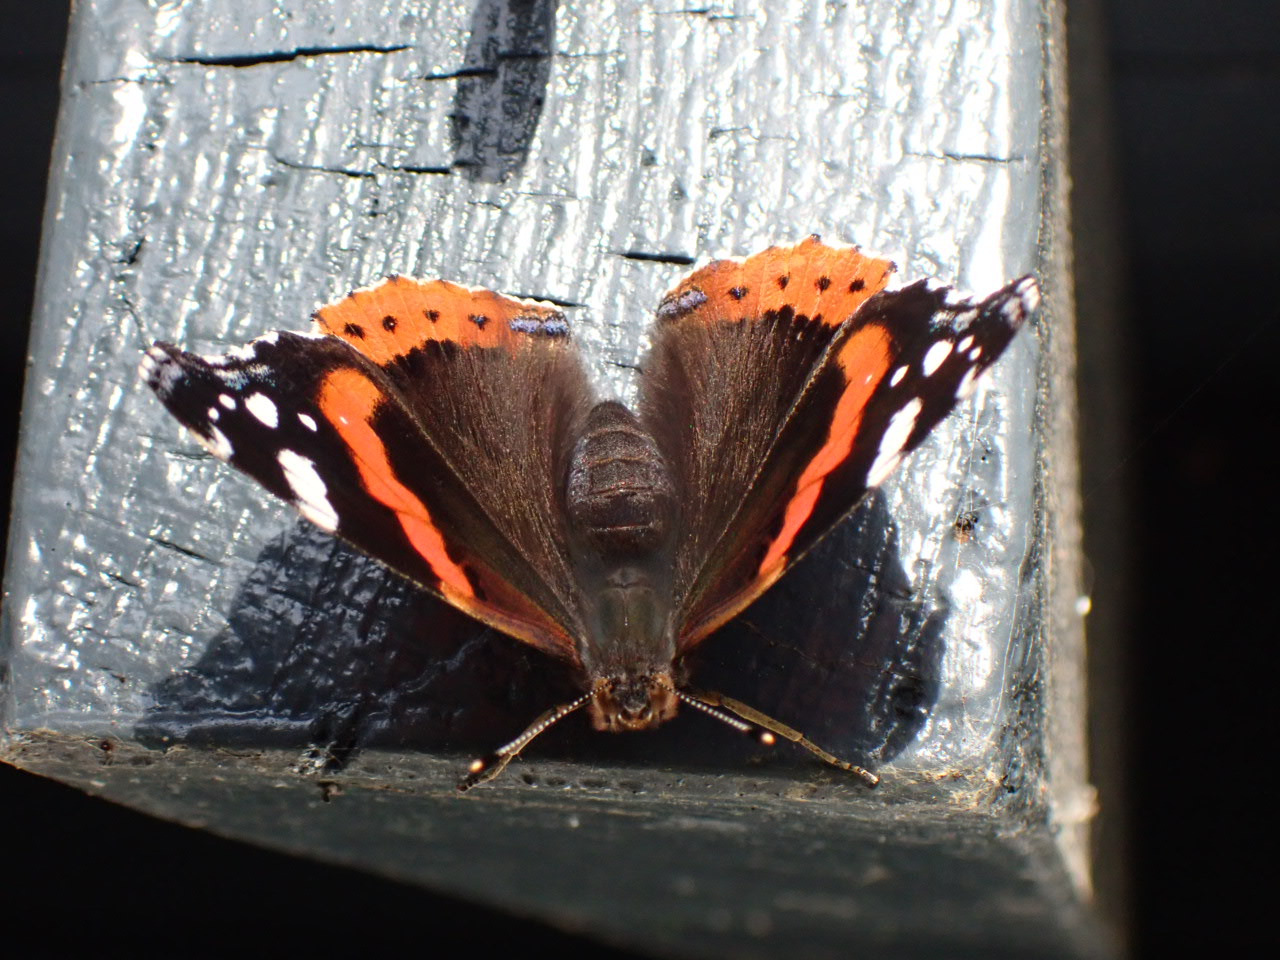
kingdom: Animalia
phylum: Arthropoda
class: Insecta
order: Lepidoptera
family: Nymphalidae
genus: Vanessa
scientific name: Vanessa atalanta
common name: Admiral
